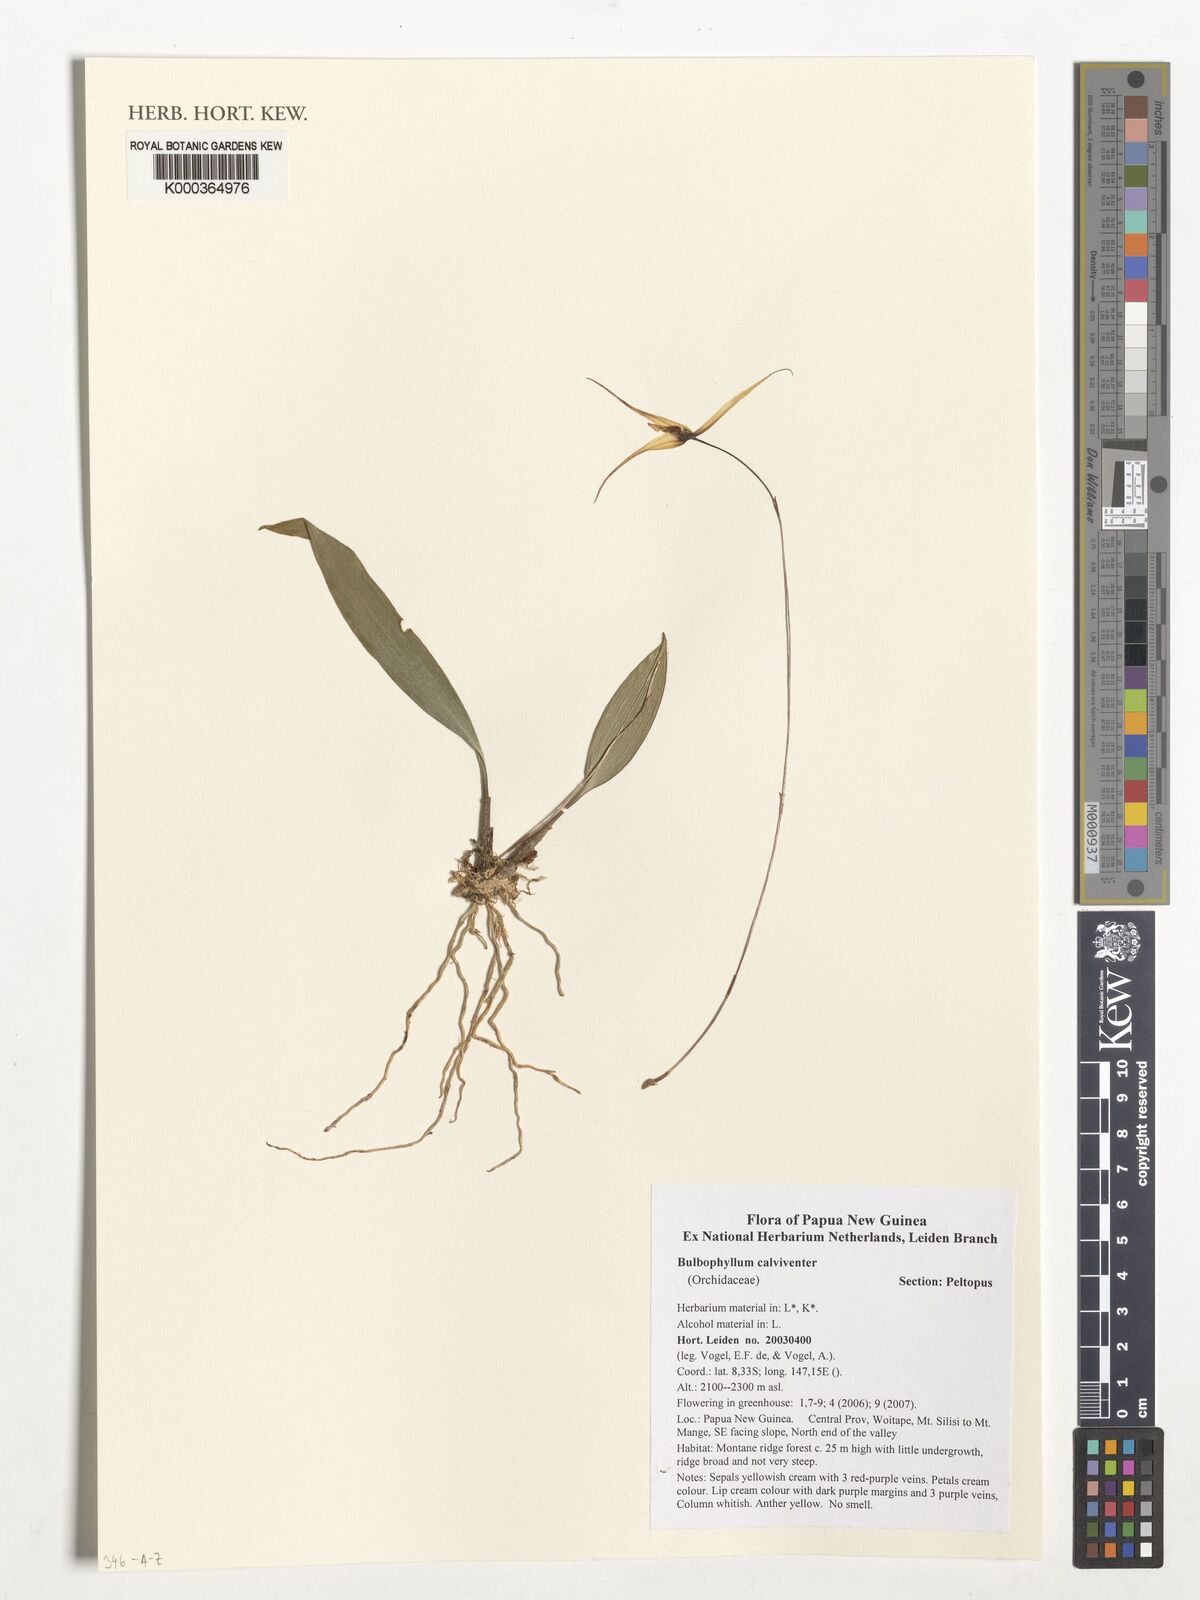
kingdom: Plantae
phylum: Tracheophyta
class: Liliopsida
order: Asparagales
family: Orchidaceae
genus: Bulbophyllum
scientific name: Bulbophyllum calviventer
